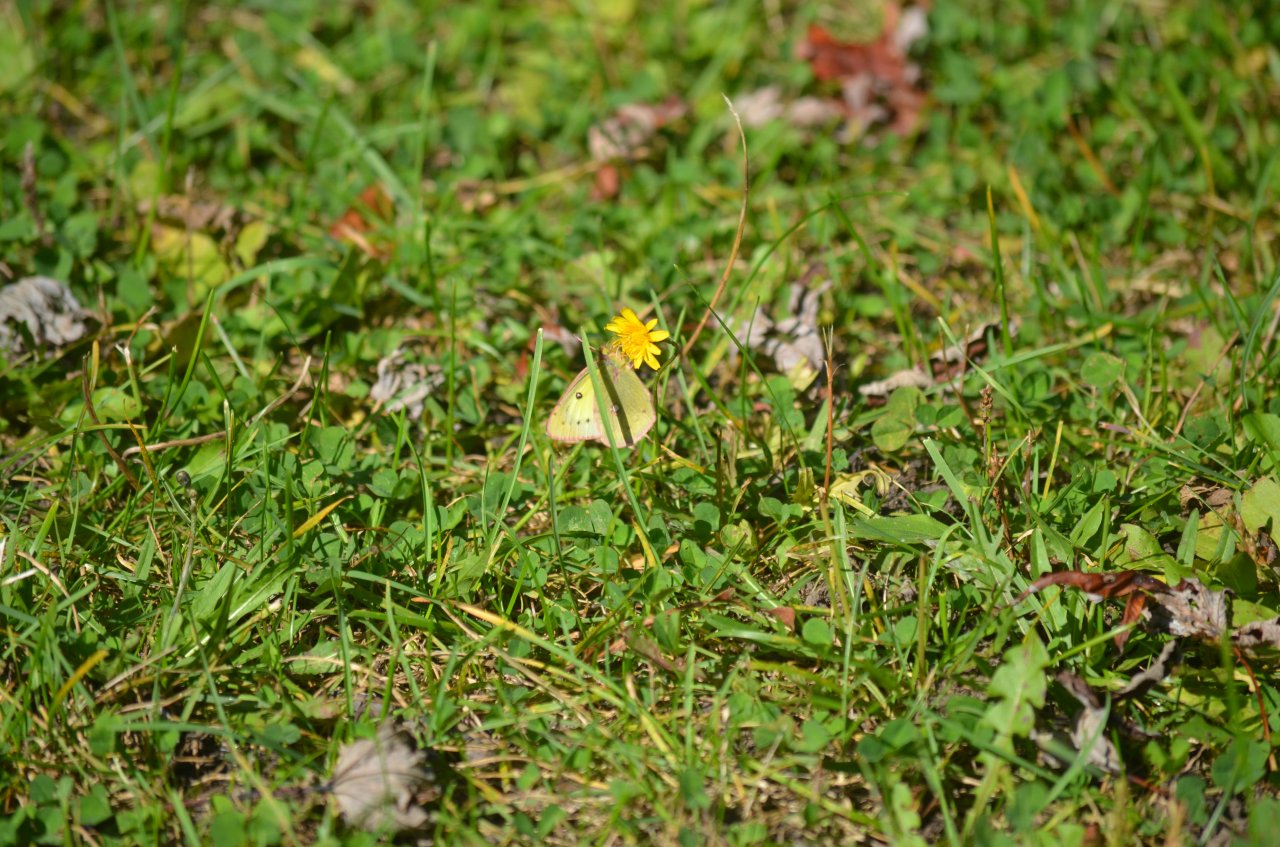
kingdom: Animalia
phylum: Arthropoda
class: Insecta
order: Lepidoptera
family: Pieridae
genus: Colias
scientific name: Colias philodice
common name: Clouded Sulphur
